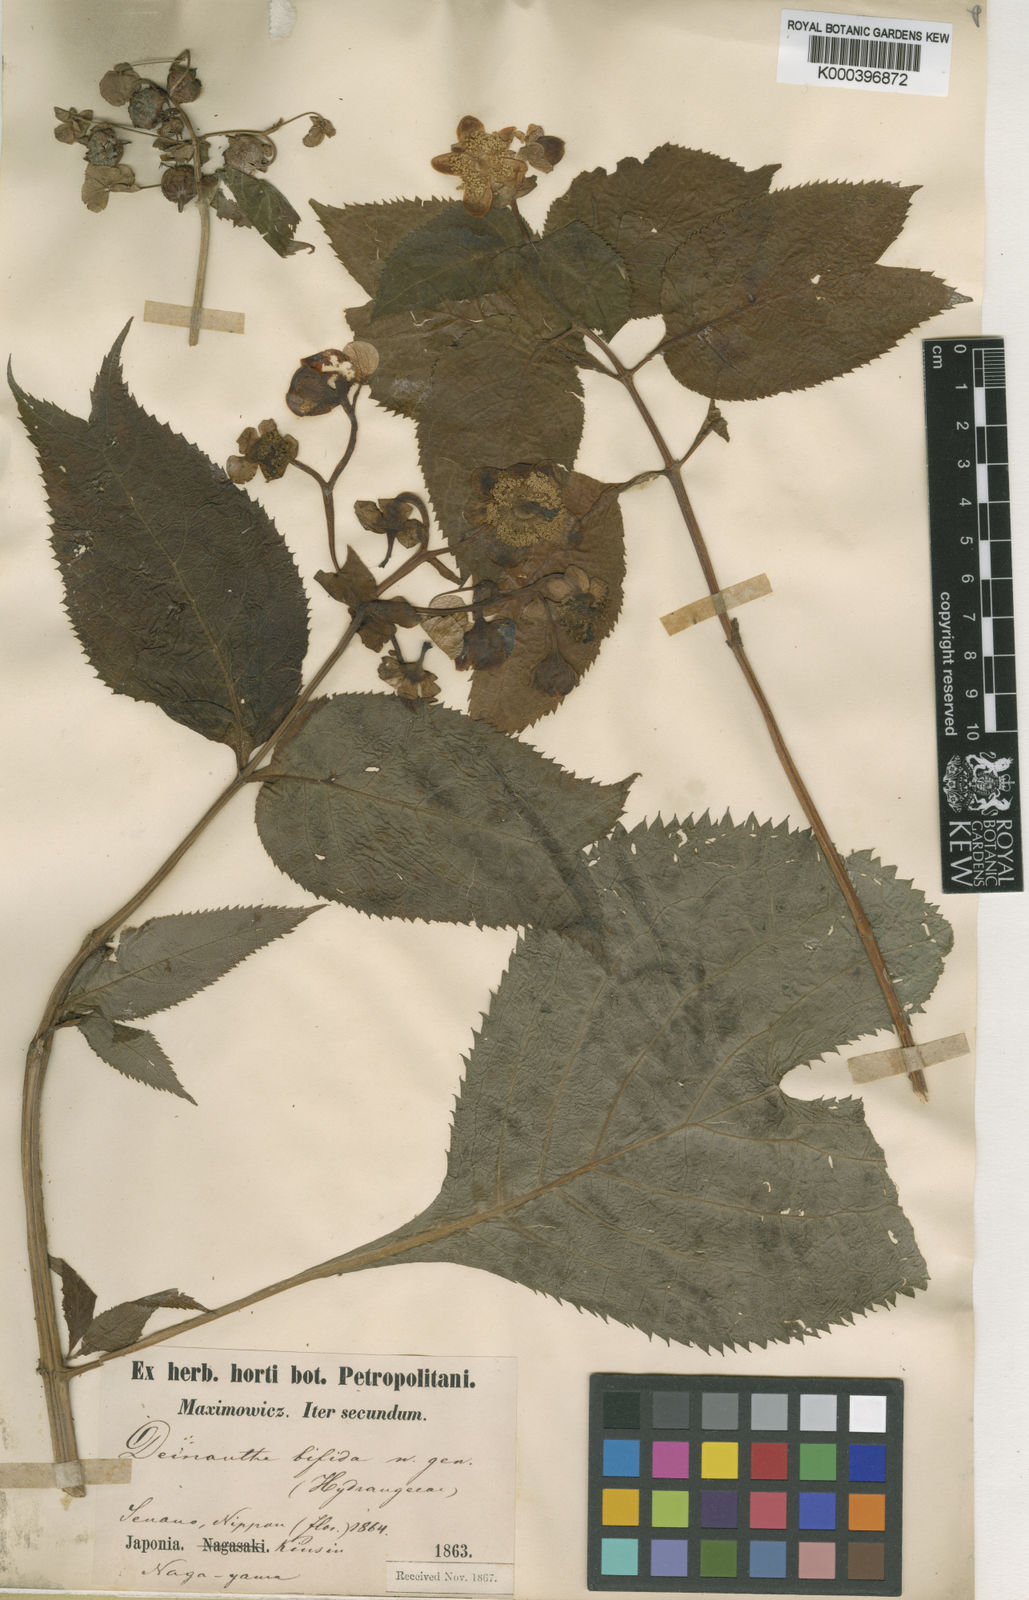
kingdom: Plantae
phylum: Tracheophyta
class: Magnoliopsida
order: Cornales
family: Hydrangeaceae
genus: Hydrangea
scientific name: Hydrangea bifida
